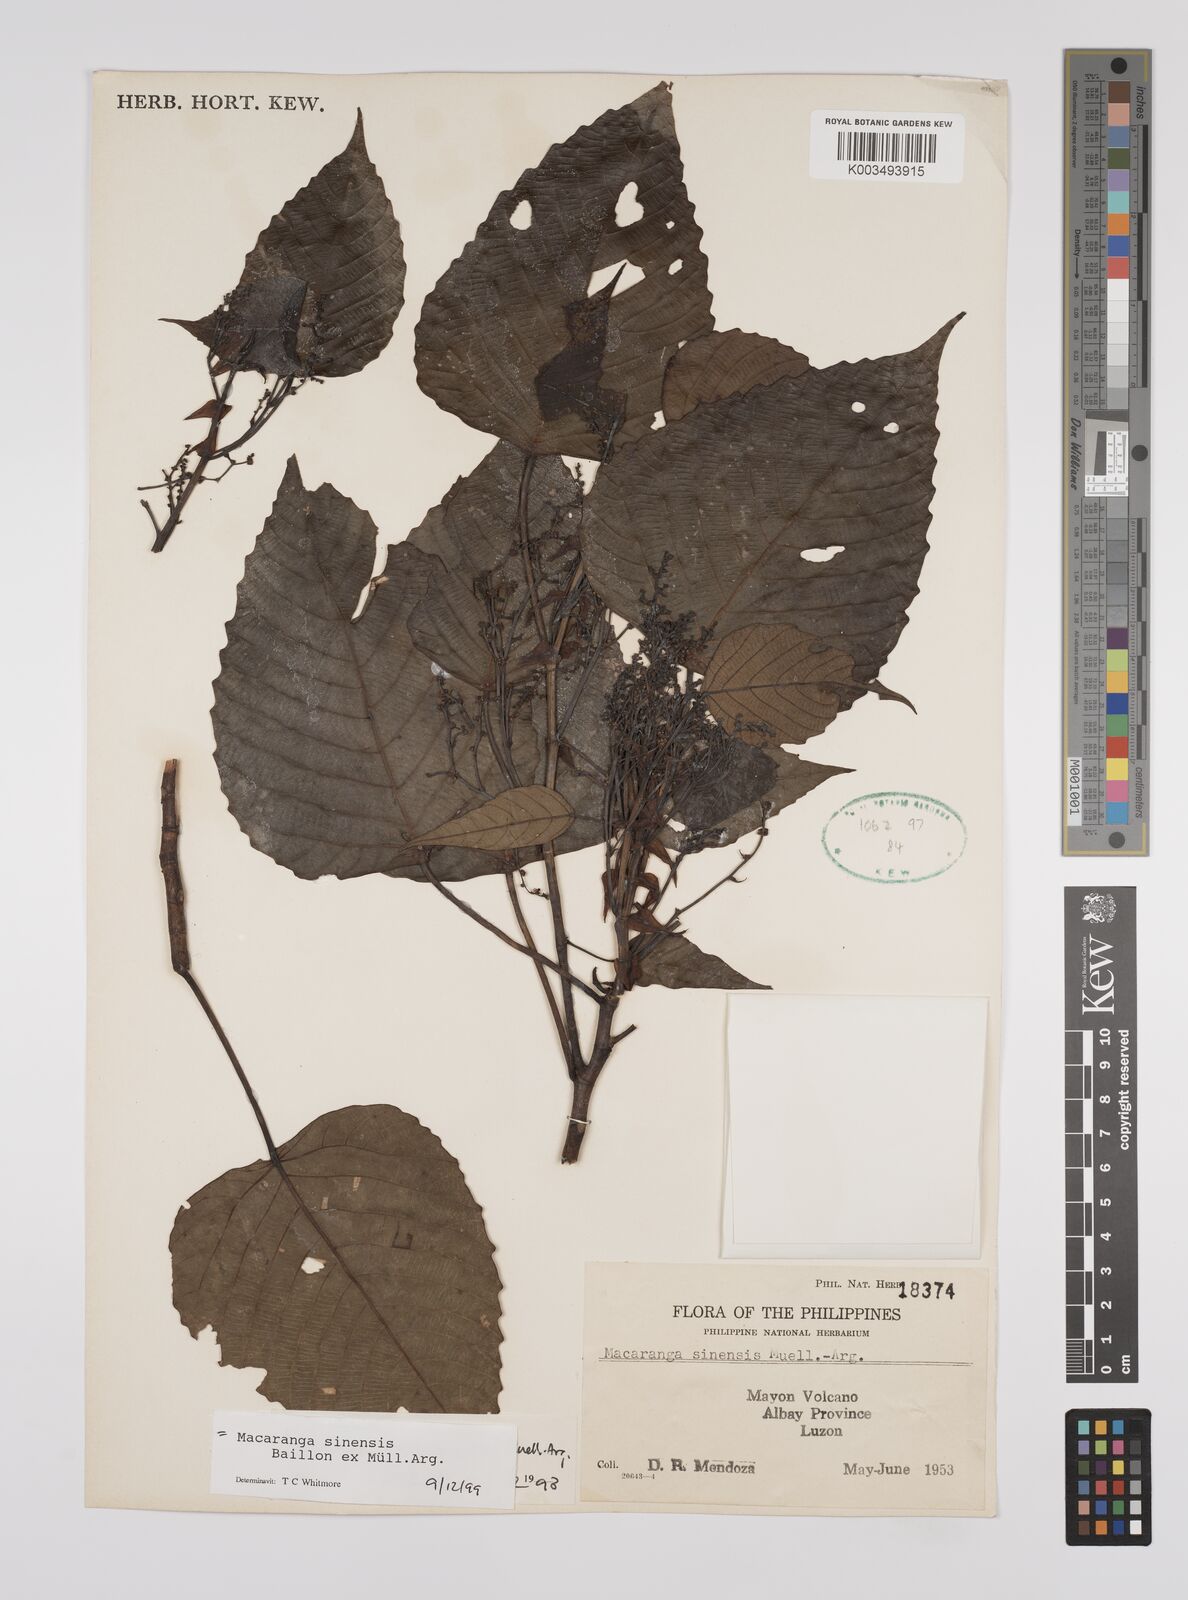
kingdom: Plantae
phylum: Tracheophyta
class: Magnoliopsida
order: Malpighiales
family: Euphorbiaceae
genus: Macaranga
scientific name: Macaranga sinensis
